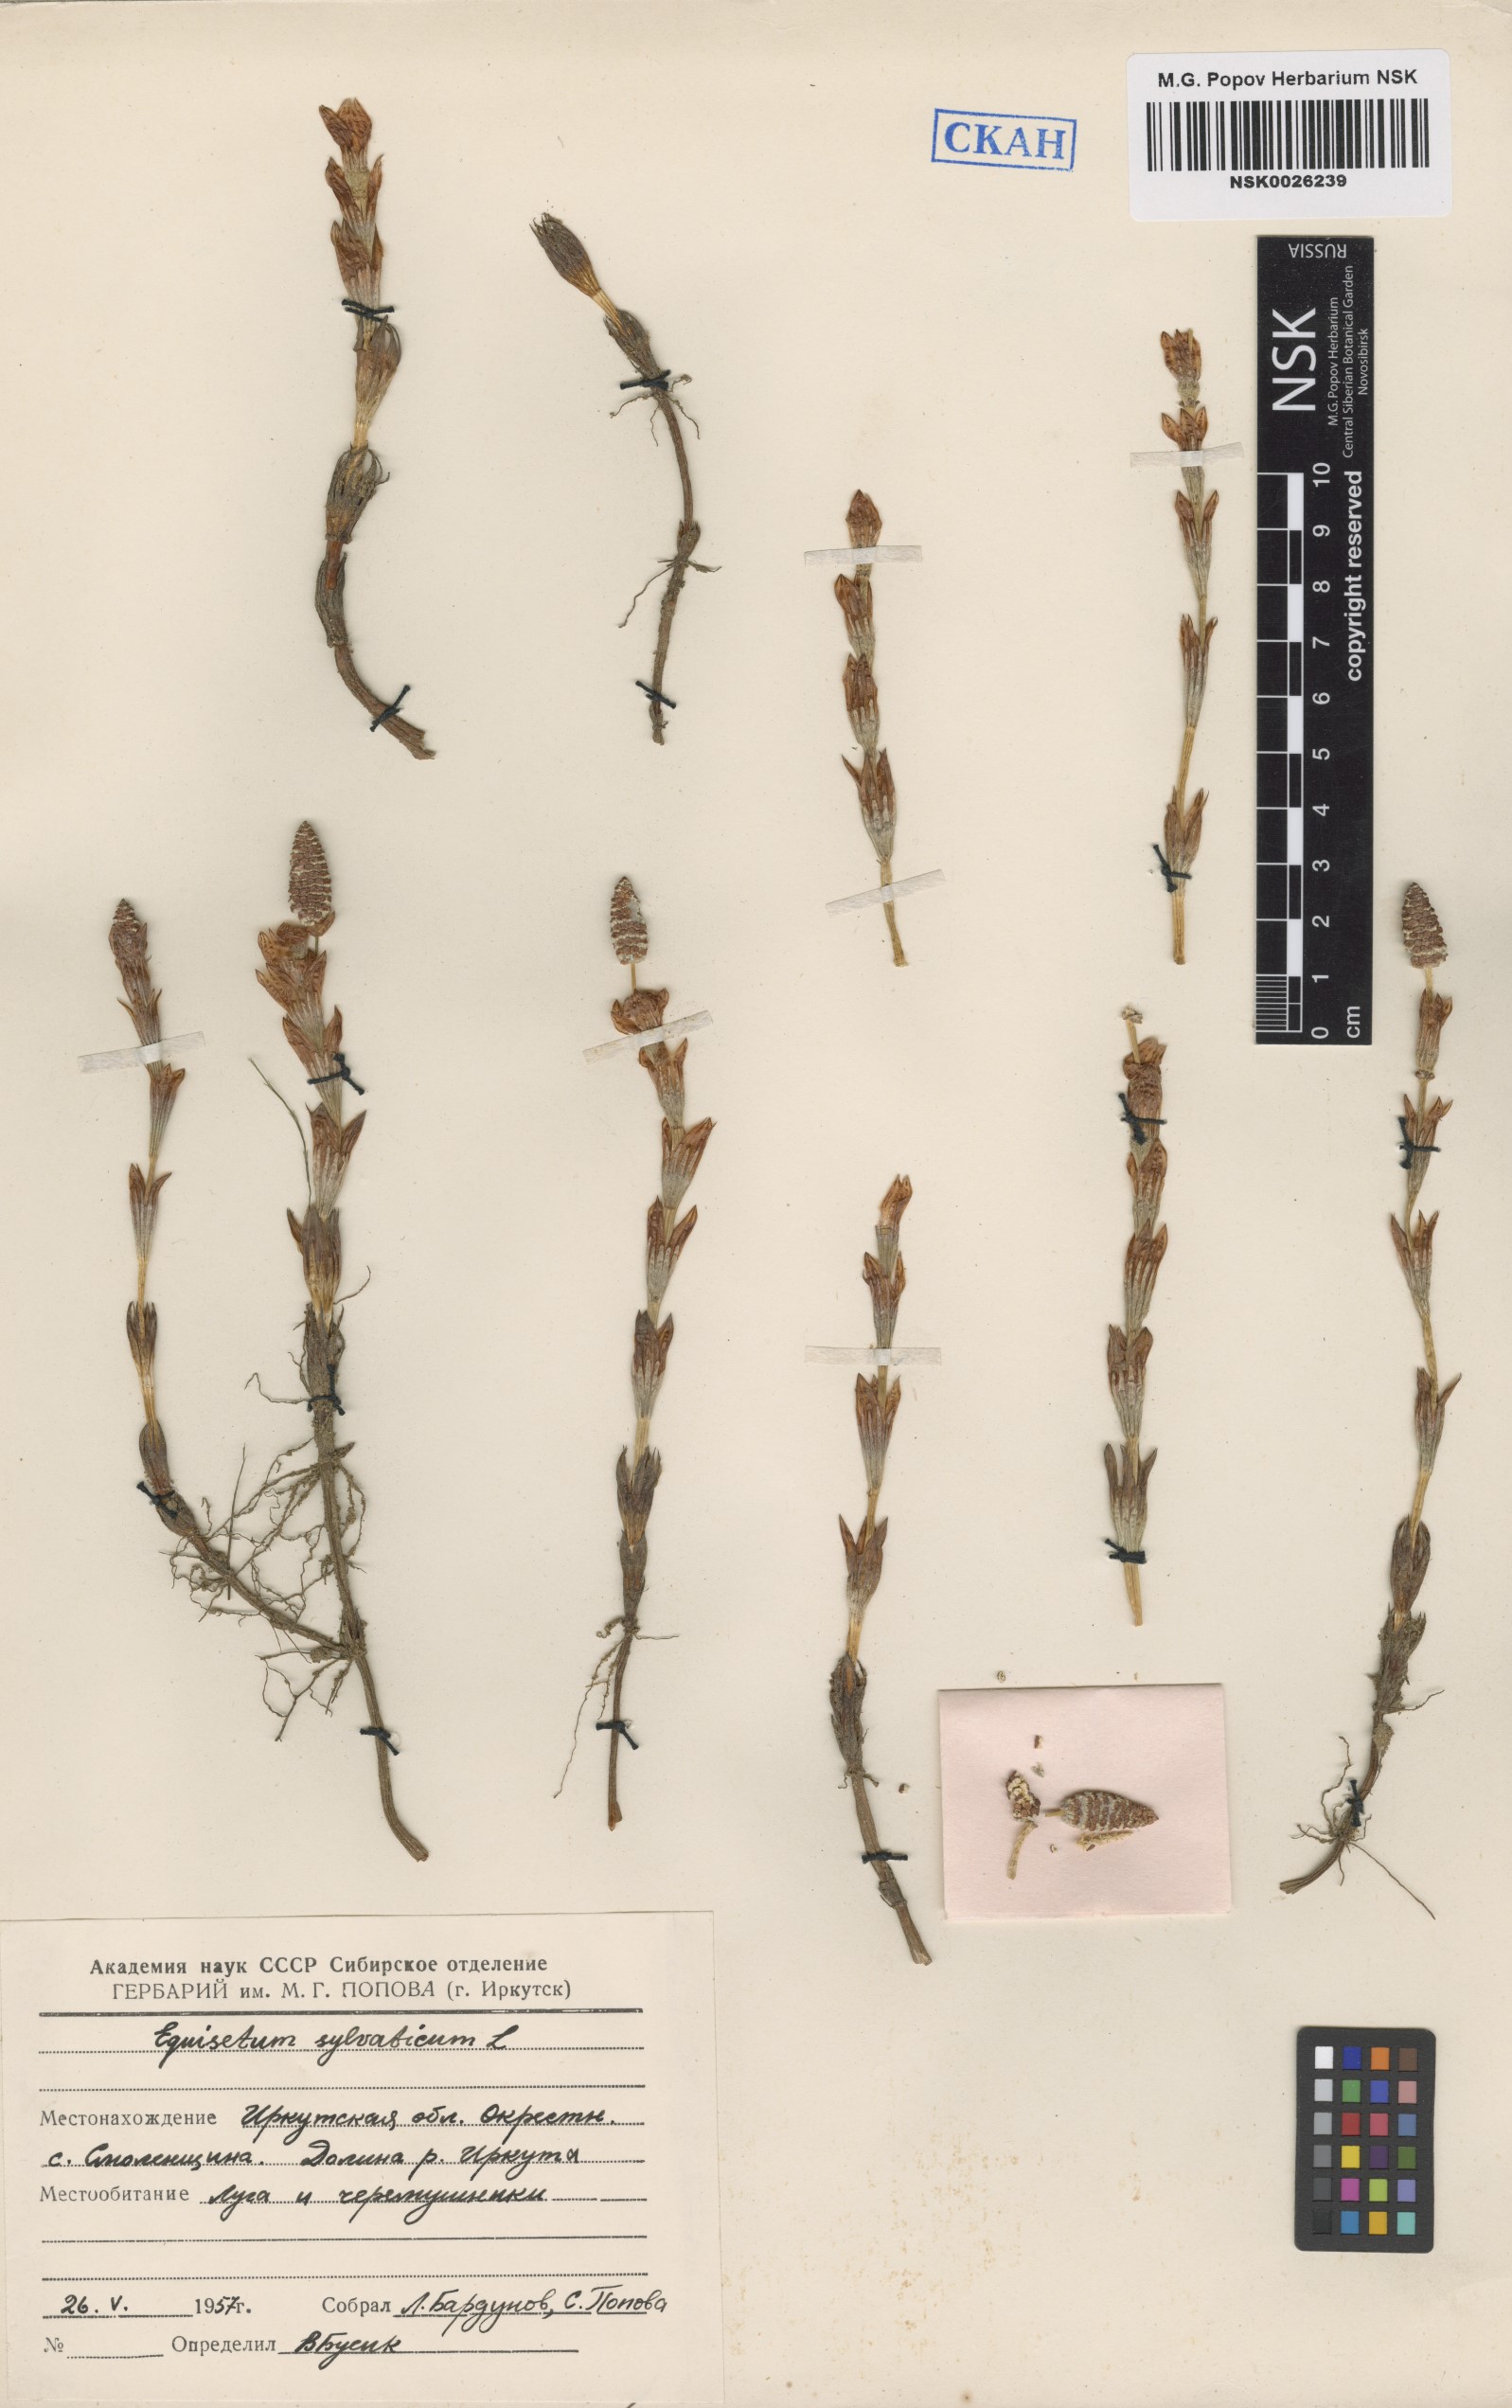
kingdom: Plantae
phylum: Tracheophyta
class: Polypodiopsida
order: Equisetales
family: Equisetaceae
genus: Equisetum
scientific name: Equisetum sylvaticum
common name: Wood horsetail
